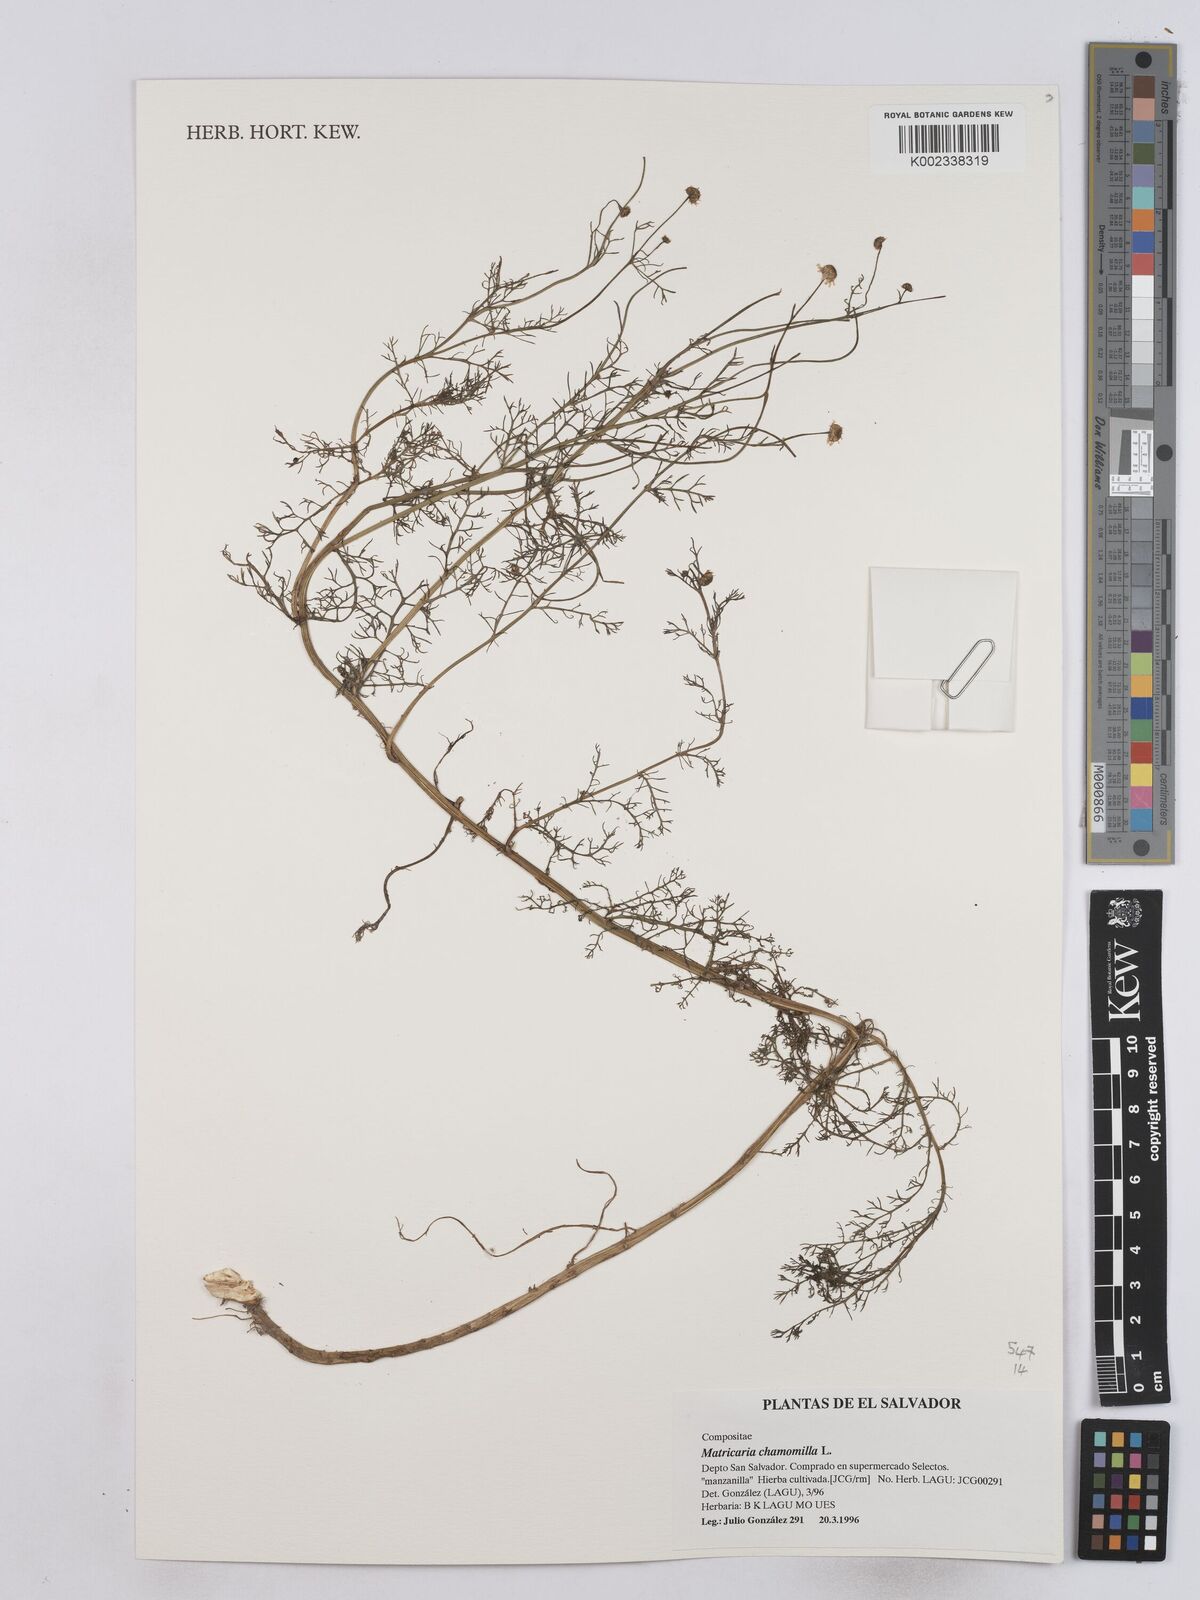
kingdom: Plantae
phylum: Tracheophyta
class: Magnoliopsida
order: Asterales
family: Asteraceae
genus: Matricaria
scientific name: Matricaria chamomilla
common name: Scented mayweed
